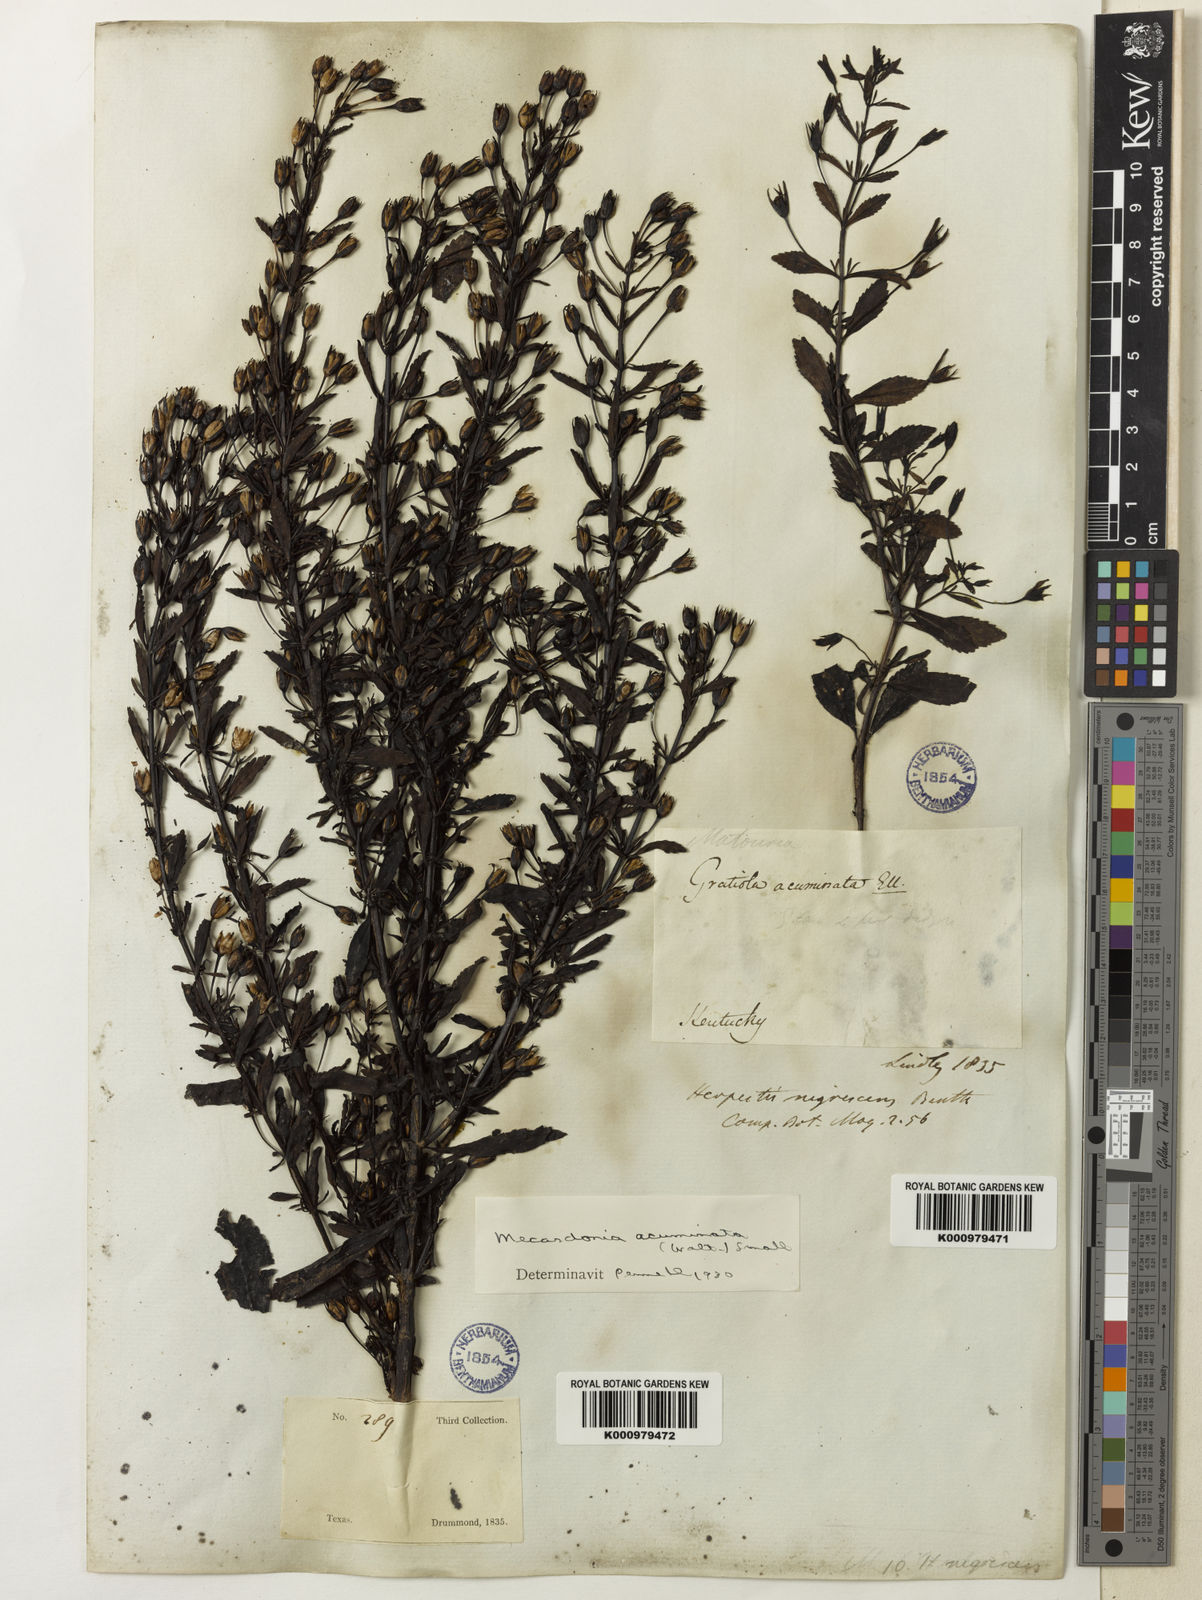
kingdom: Plantae
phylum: Tracheophyta
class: Magnoliopsida
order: Lamiales
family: Plantaginaceae
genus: Mecardonia
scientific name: Mecardonia
